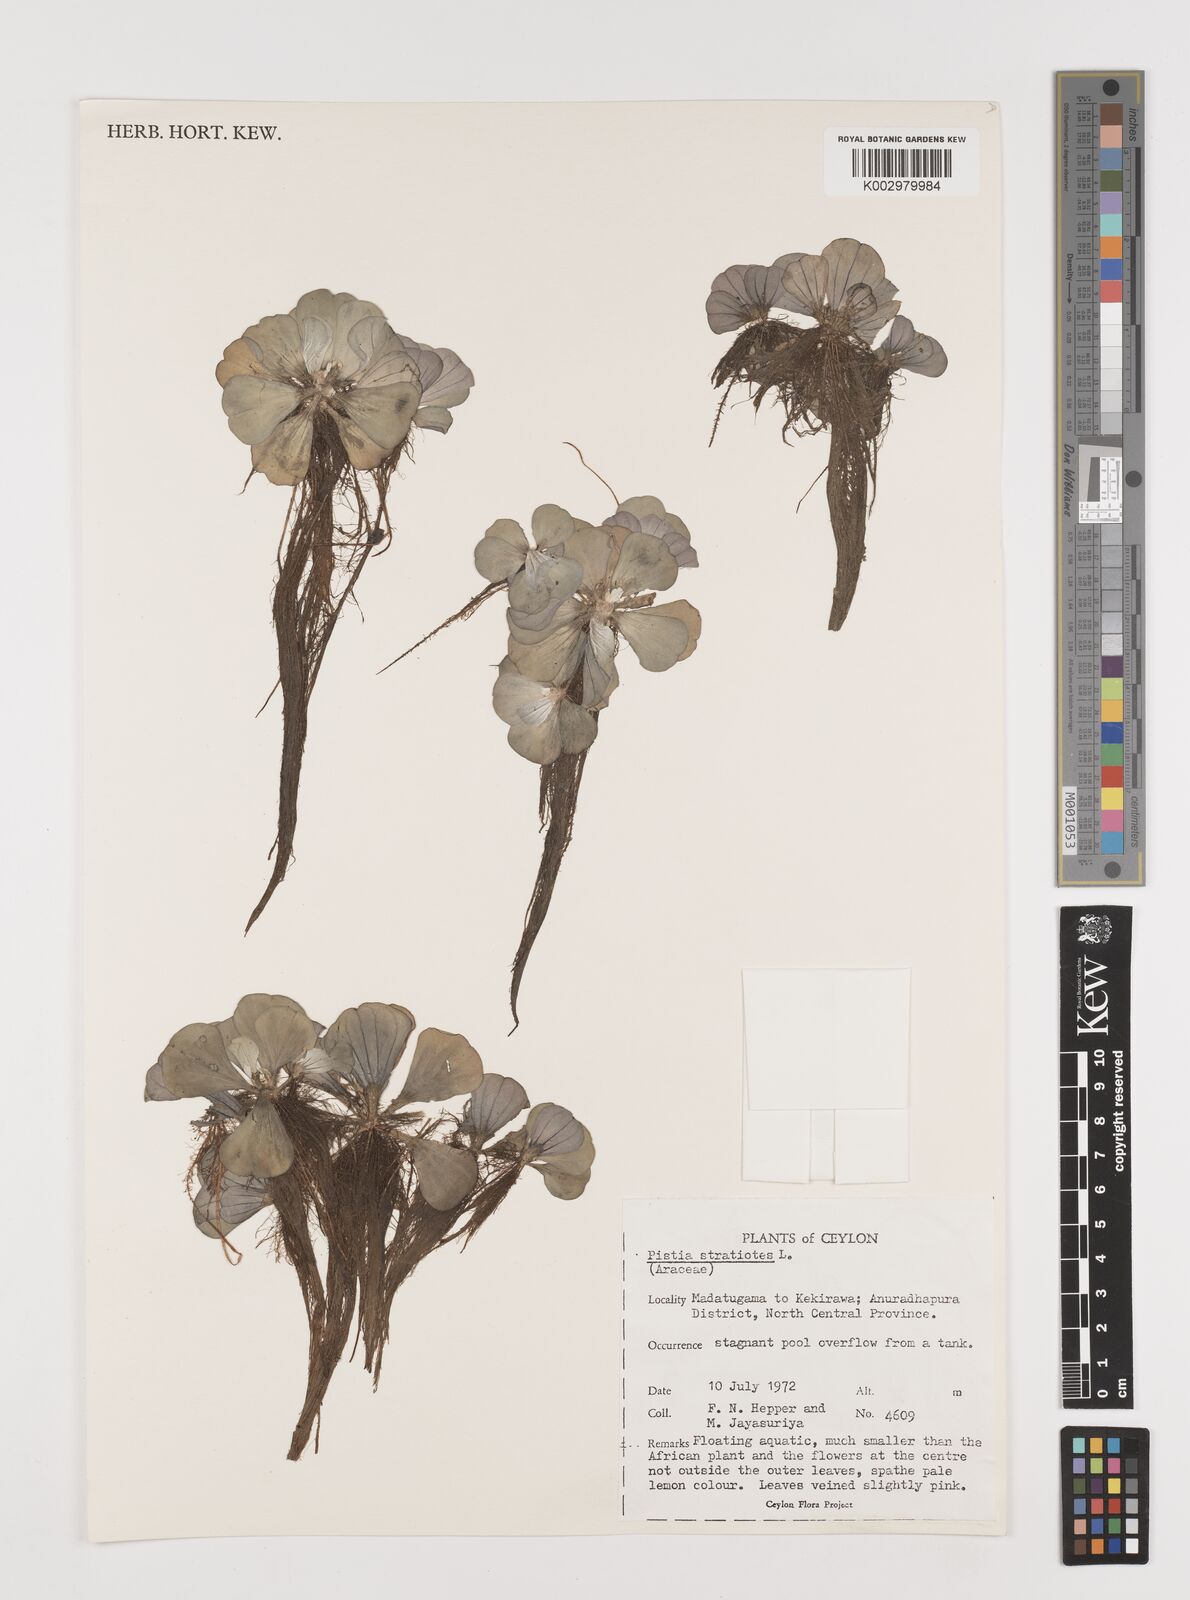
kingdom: Plantae
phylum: Tracheophyta
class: Liliopsida
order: Alismatales
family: Araceae
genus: Pistia
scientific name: Pistia stratiotes
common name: Water lettuce
